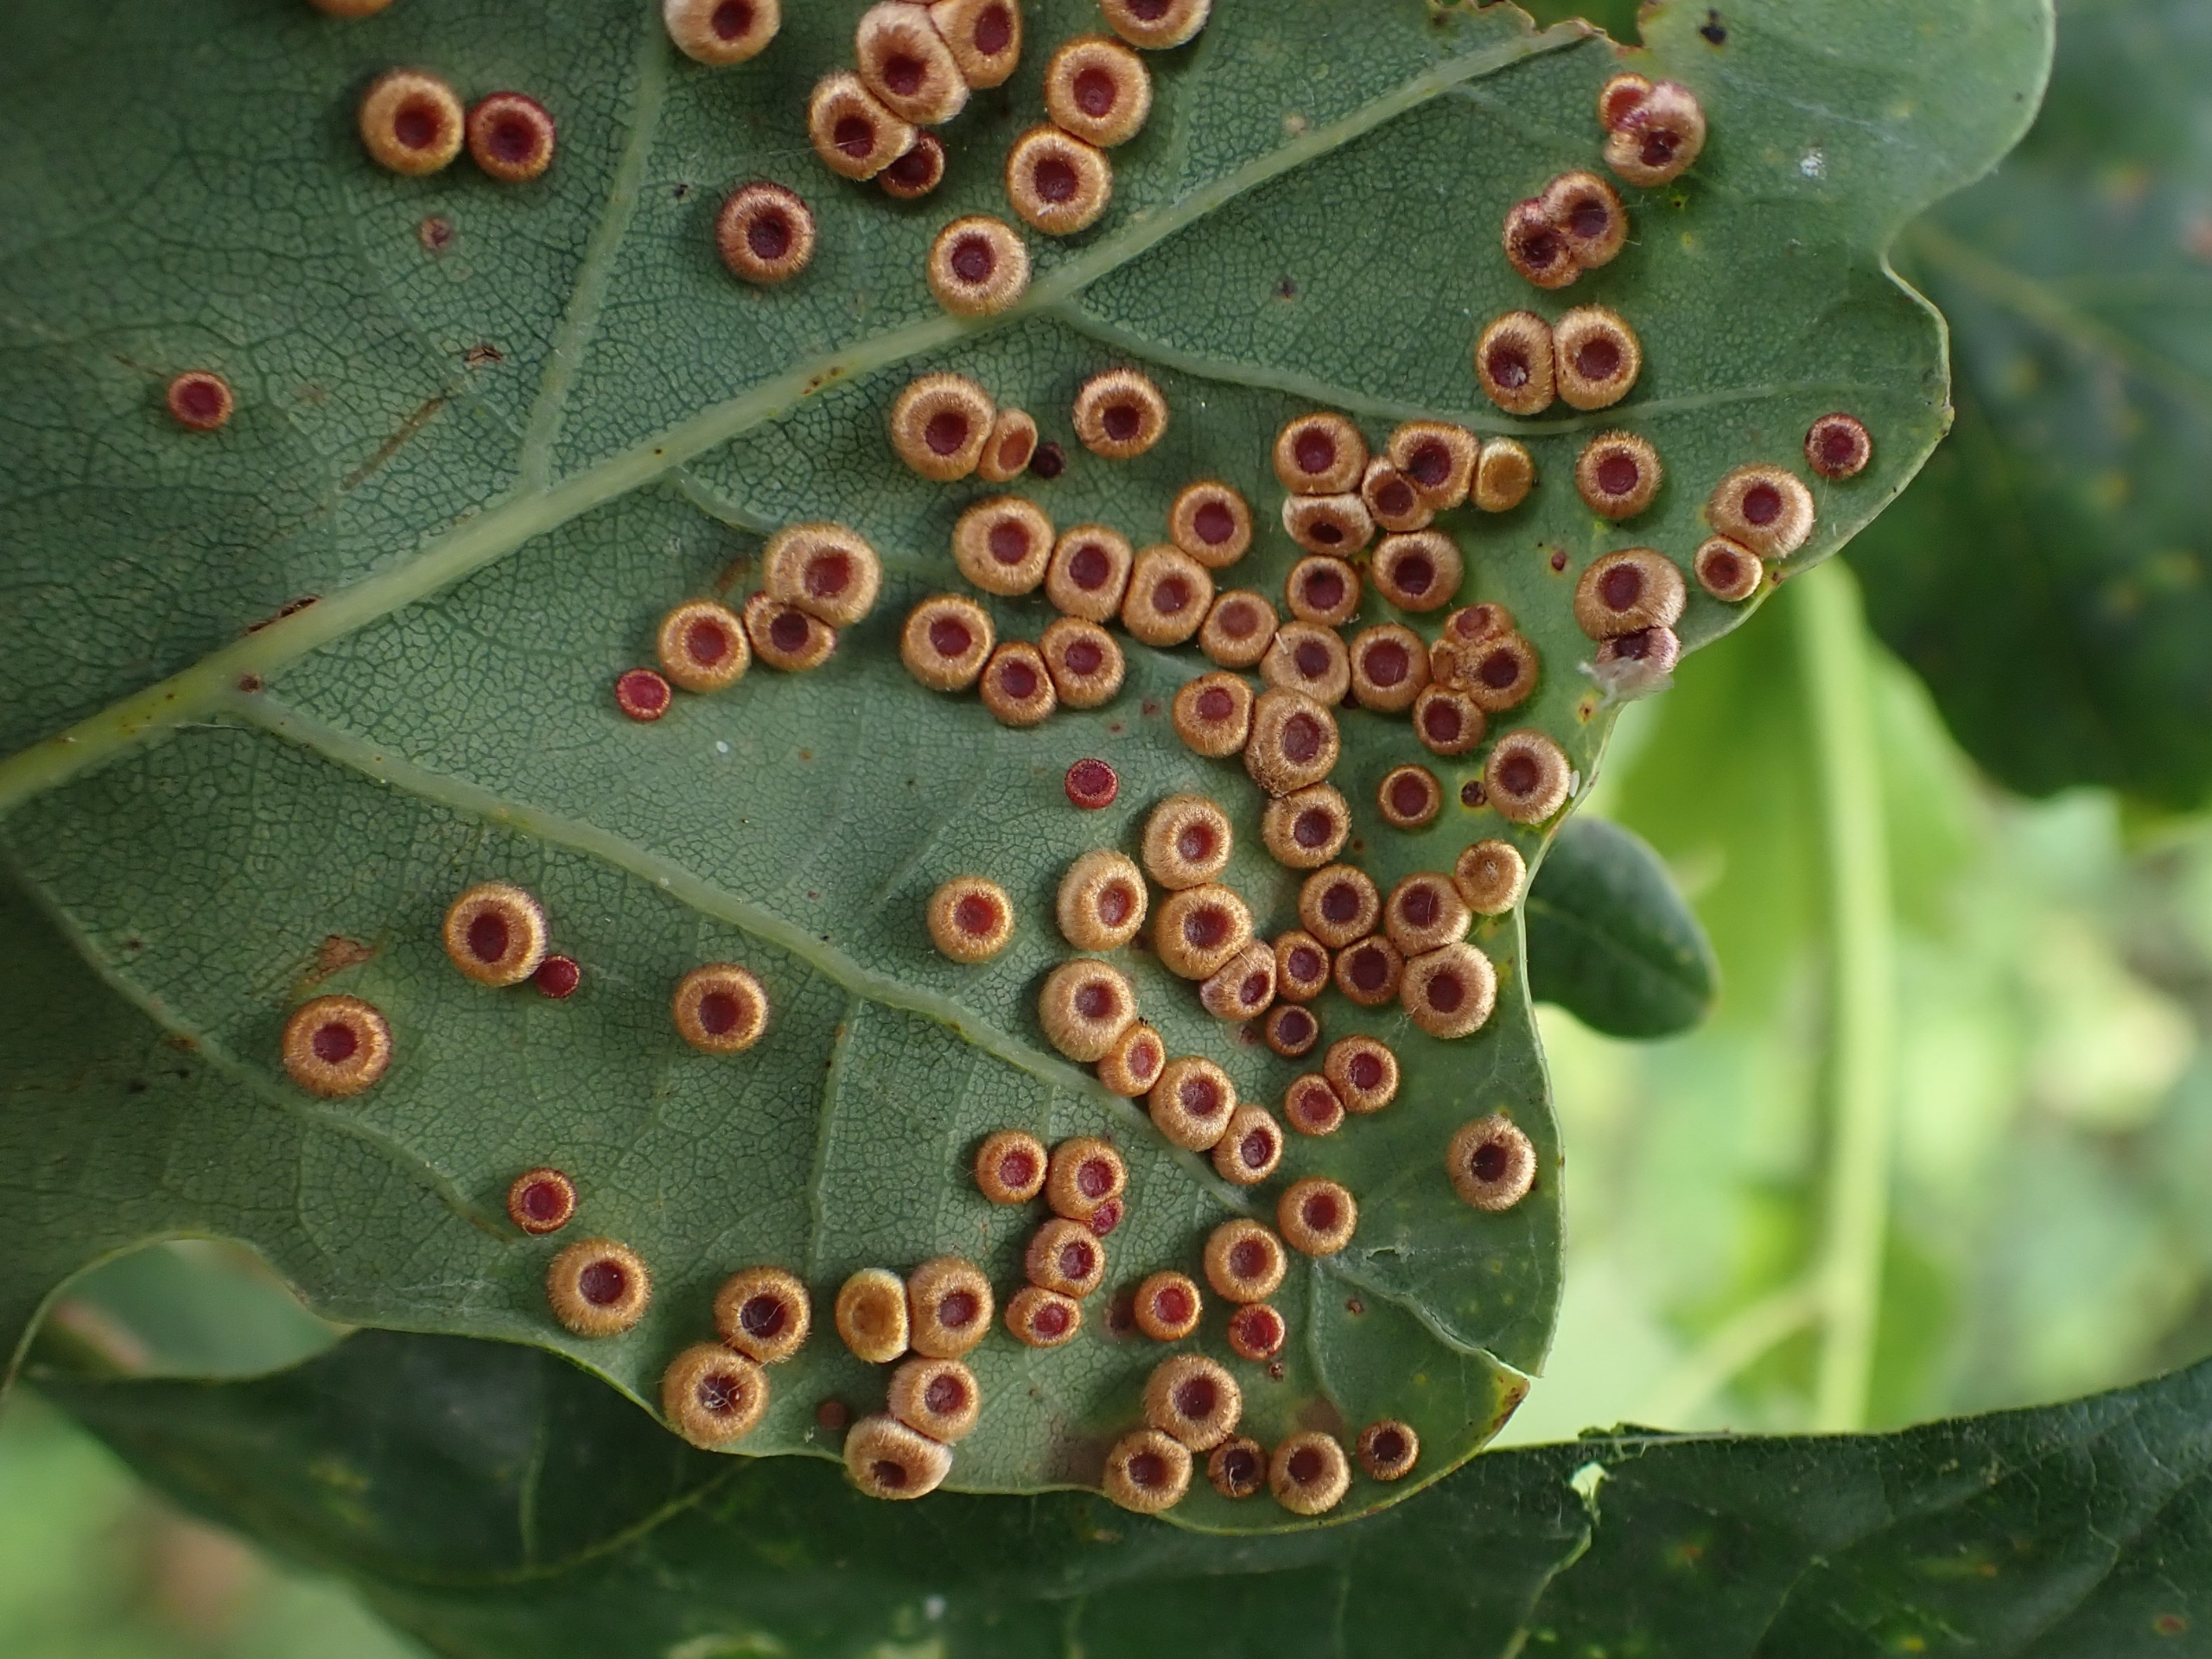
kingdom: Animalia
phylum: Arthropoda
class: Insecta
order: Hymenoptera
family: Cynipidae
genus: Neuroterus
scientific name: Neuroterus numismalis
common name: Knapgalhveps
